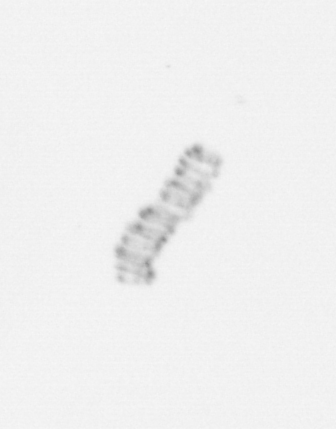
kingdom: Chromista
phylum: Ochrophyta
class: Bacillariophyceae
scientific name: Bacillariophyceae
